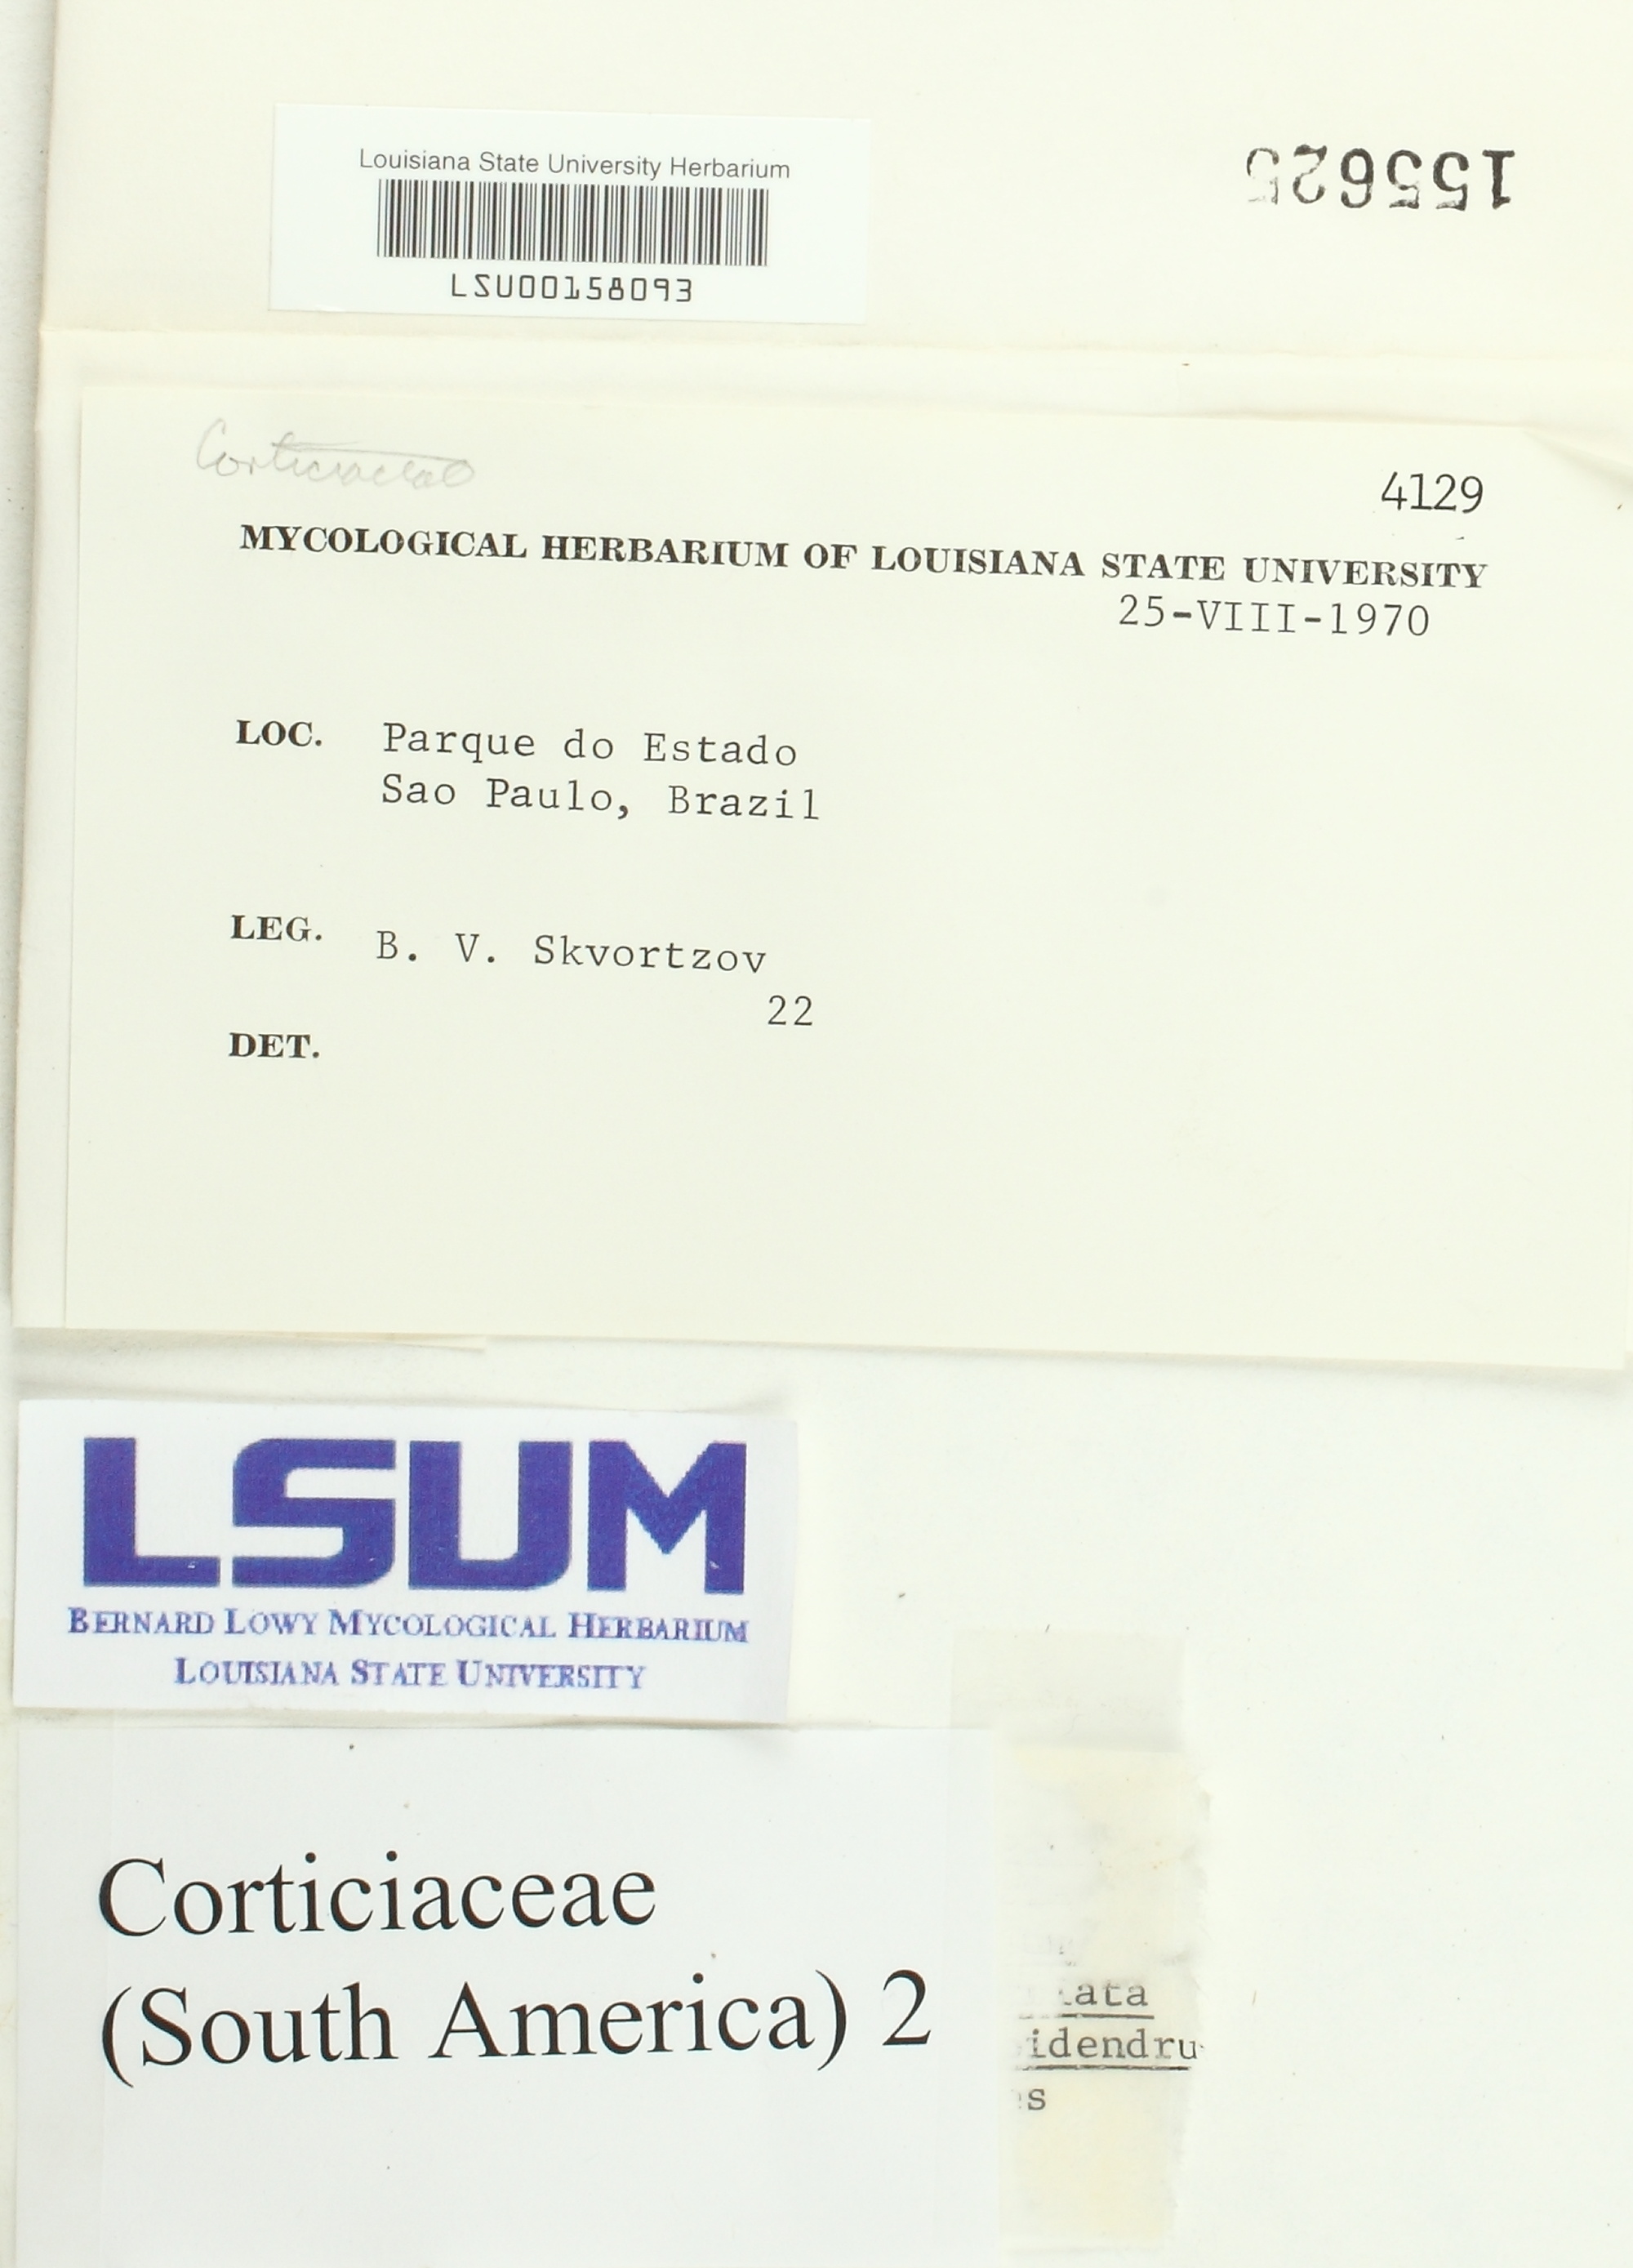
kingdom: Fungi
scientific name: Fungi
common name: Fungi
